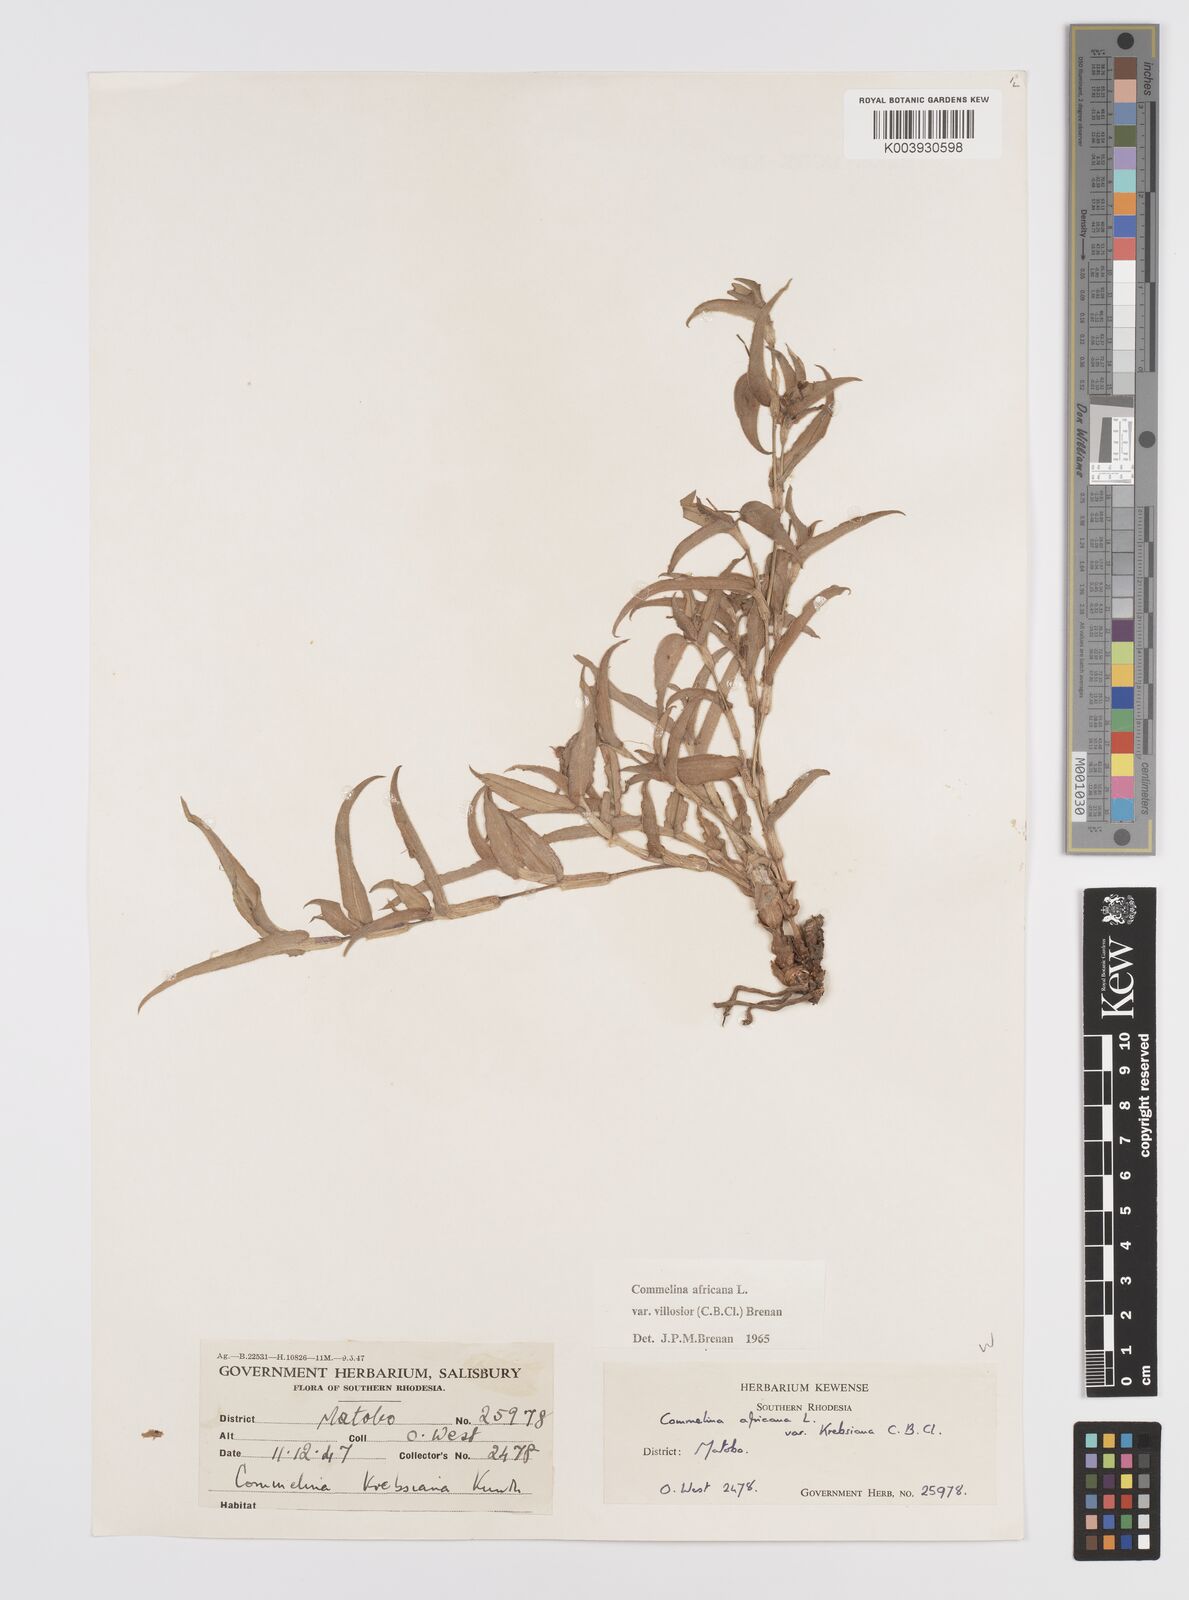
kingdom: Plantae
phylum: Tracheophyta
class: Liliopsida
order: Commelinales
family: Commelinaceae
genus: Commelina
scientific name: Commelina africana
